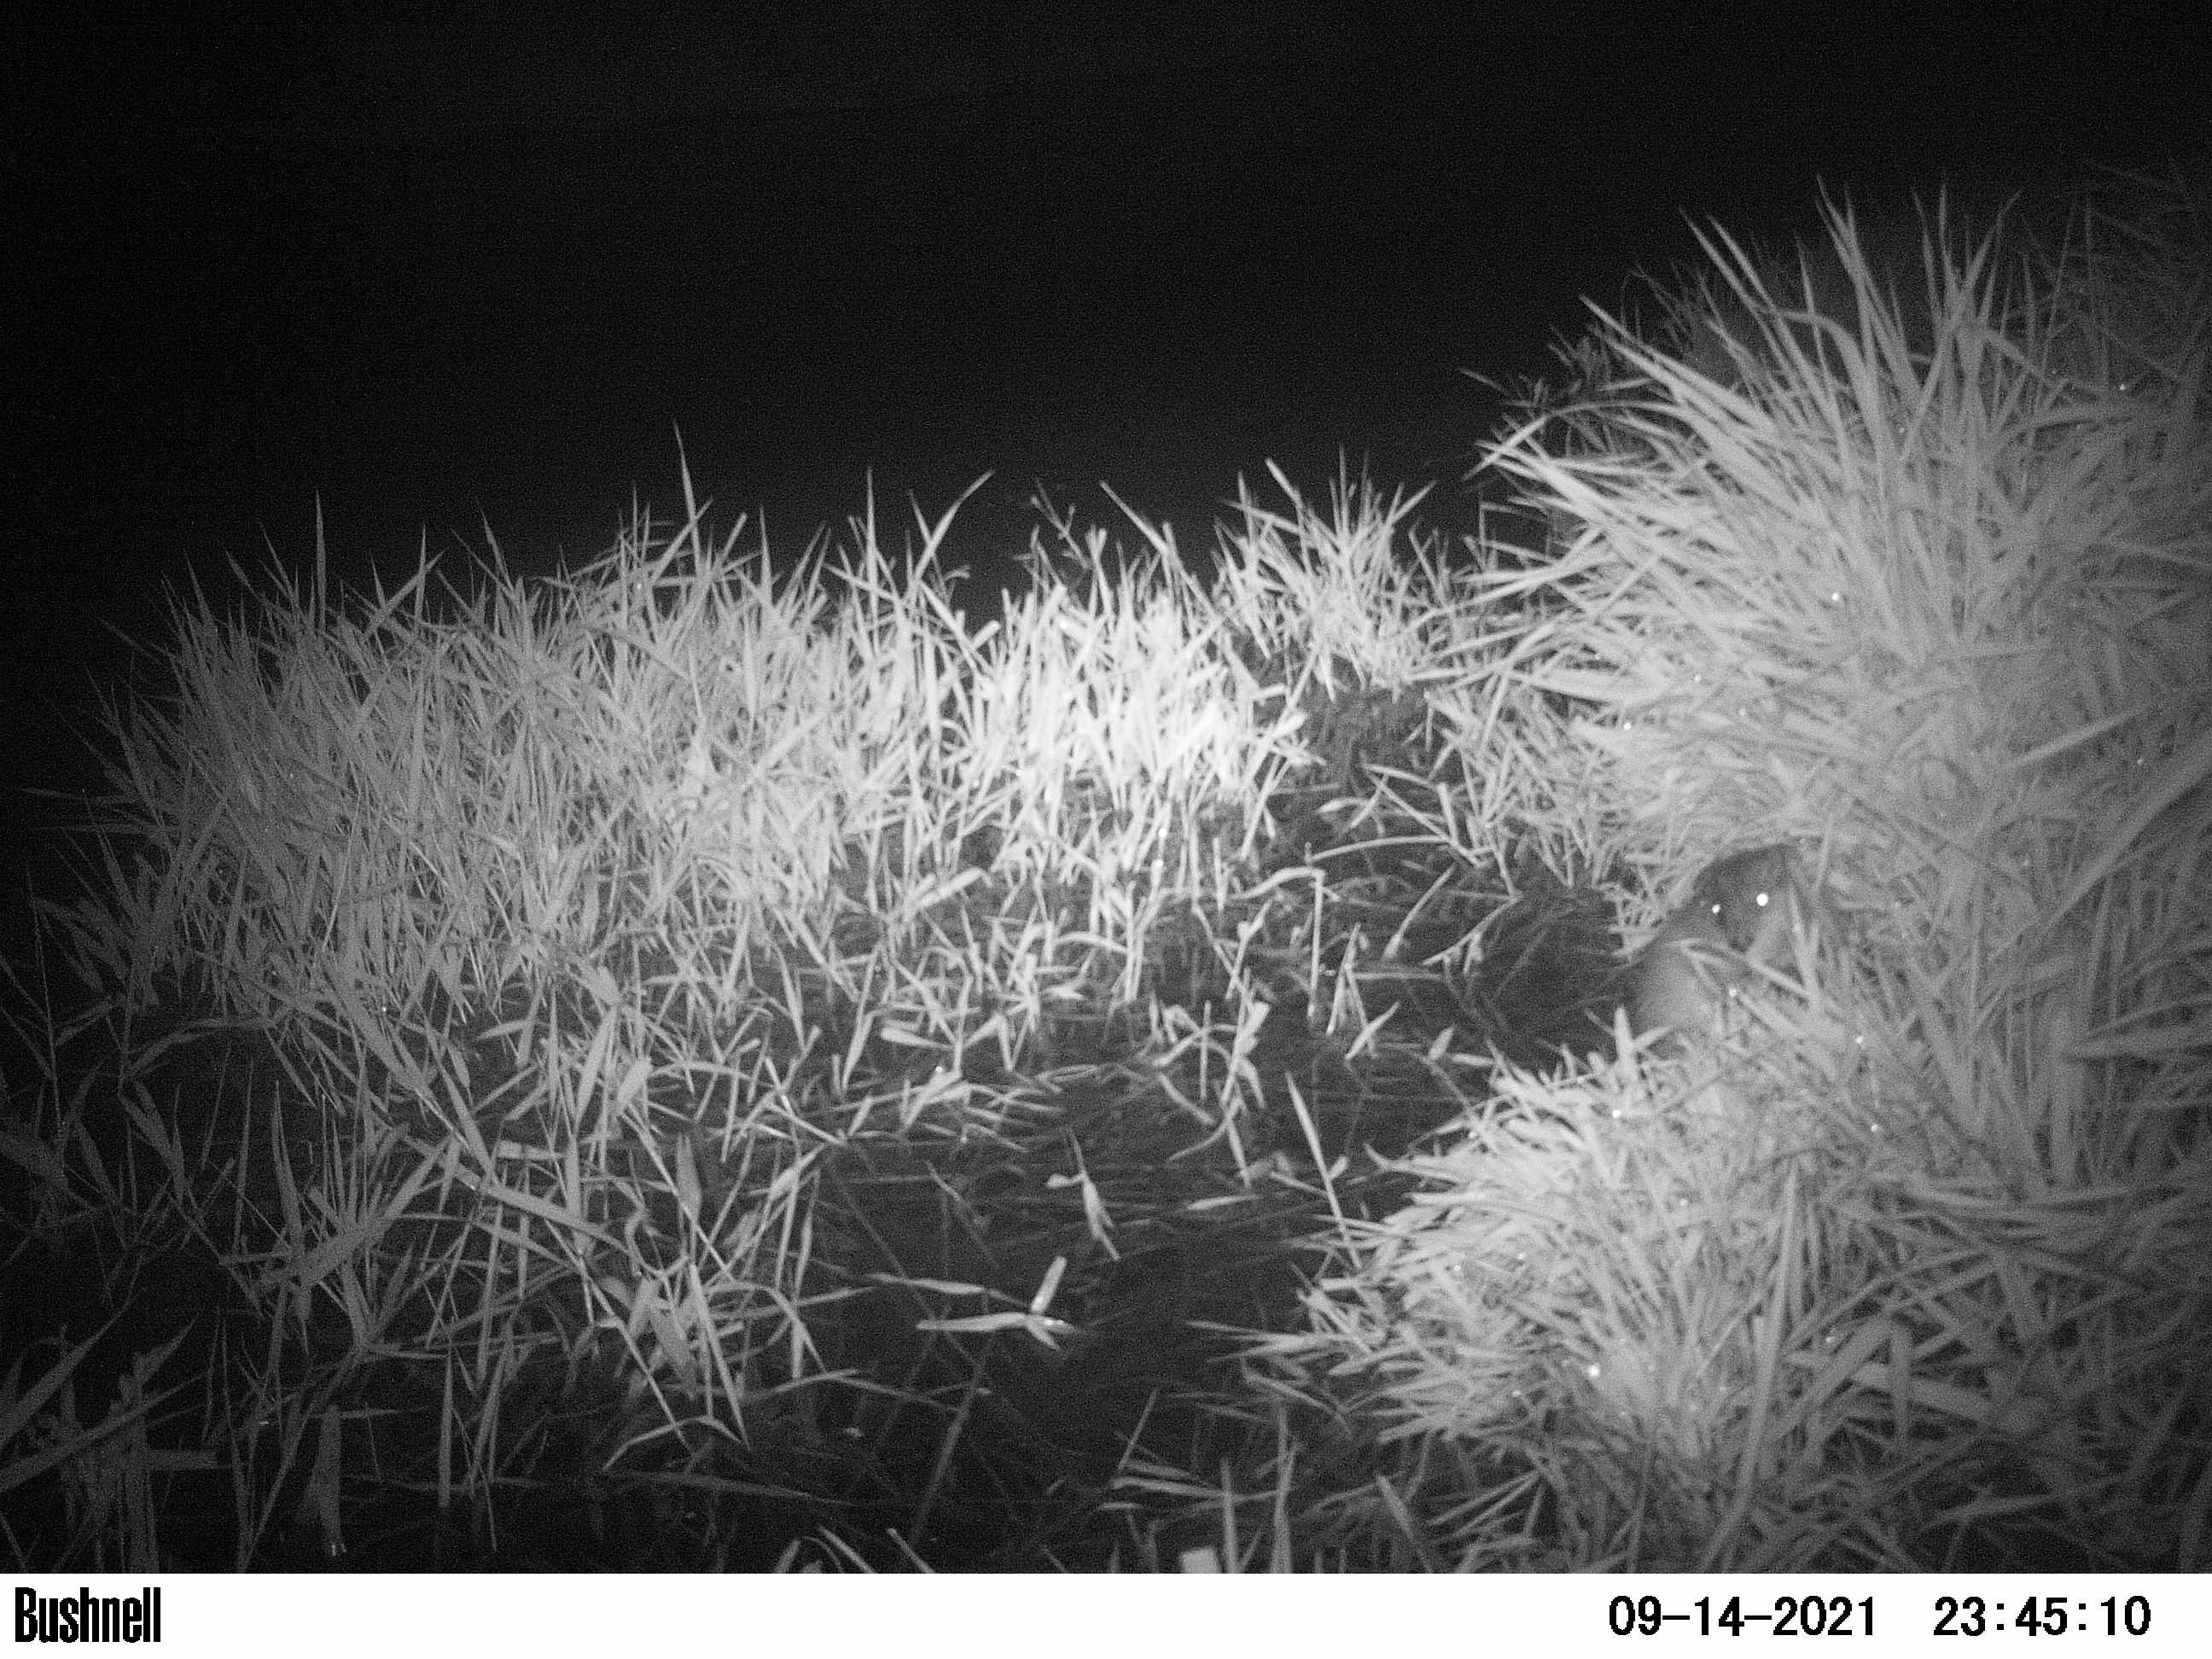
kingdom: Animalia
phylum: Chordata
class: Mammalia
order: Rodentia
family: Cricetidae
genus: Ondatra
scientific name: Ondatra zibethicus
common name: Muskrat
